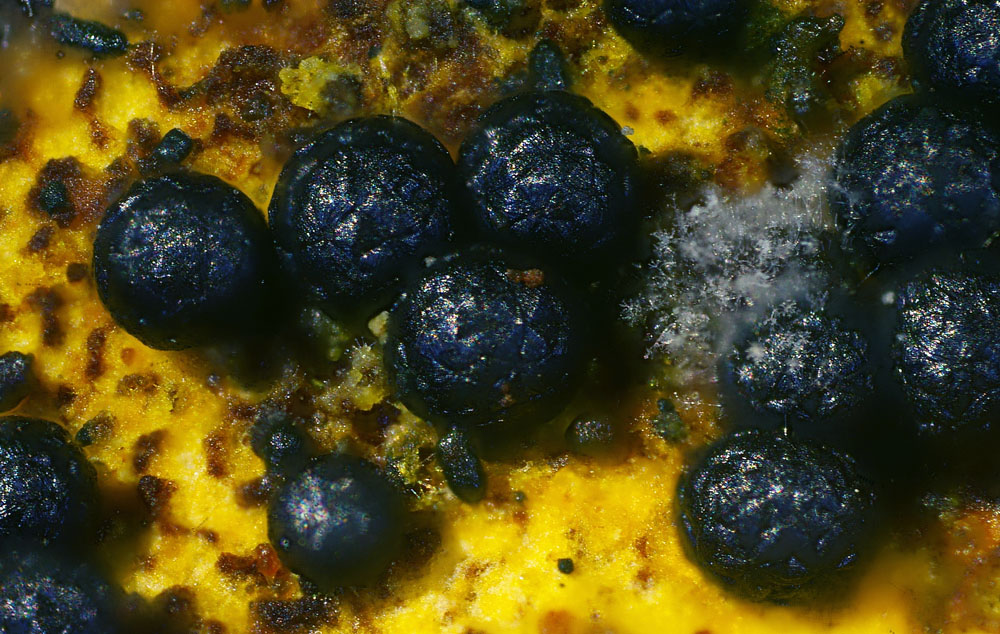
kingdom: Fungi
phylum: Ascomycota
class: Sordariomycetes
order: Cephalothecales
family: Cephalothecaceae
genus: Albertiniella
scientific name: Albertiniella polyporicola
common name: porekugle
